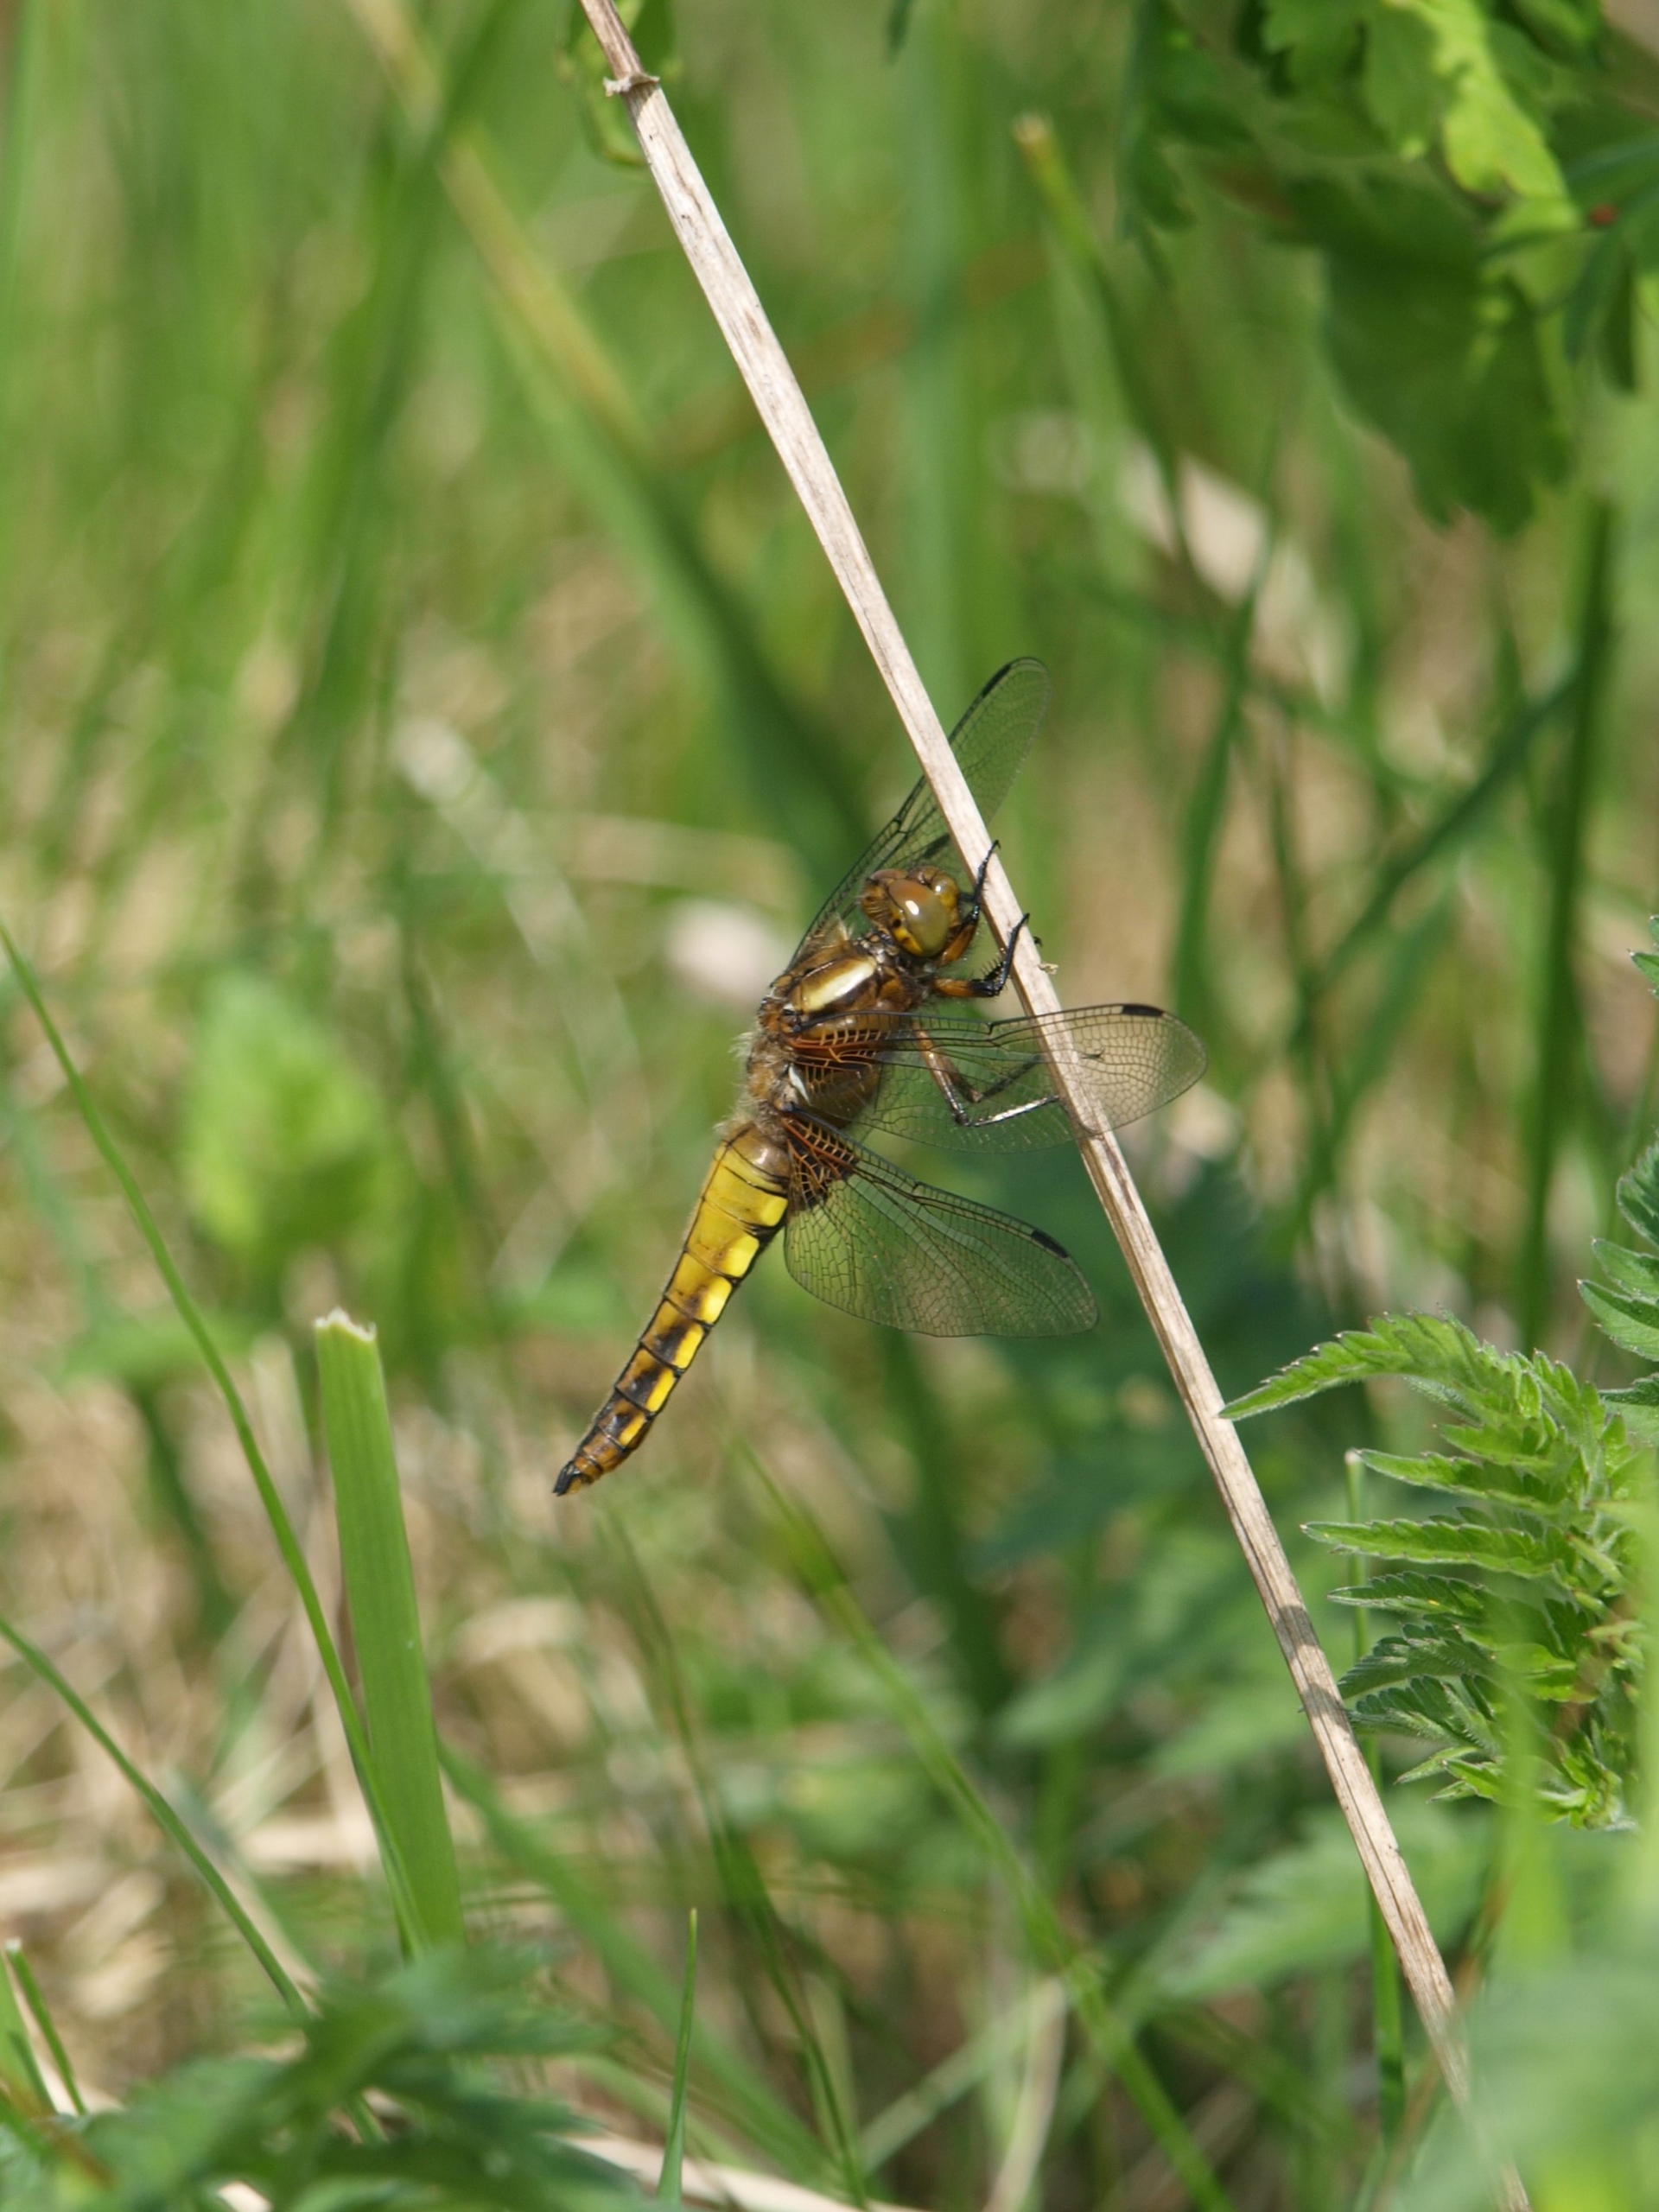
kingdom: Animalia
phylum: Arthropoda
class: Insecta
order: Odonata
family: Libellulidae
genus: Libellula
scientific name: Libellula depressa
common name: Blå libel
